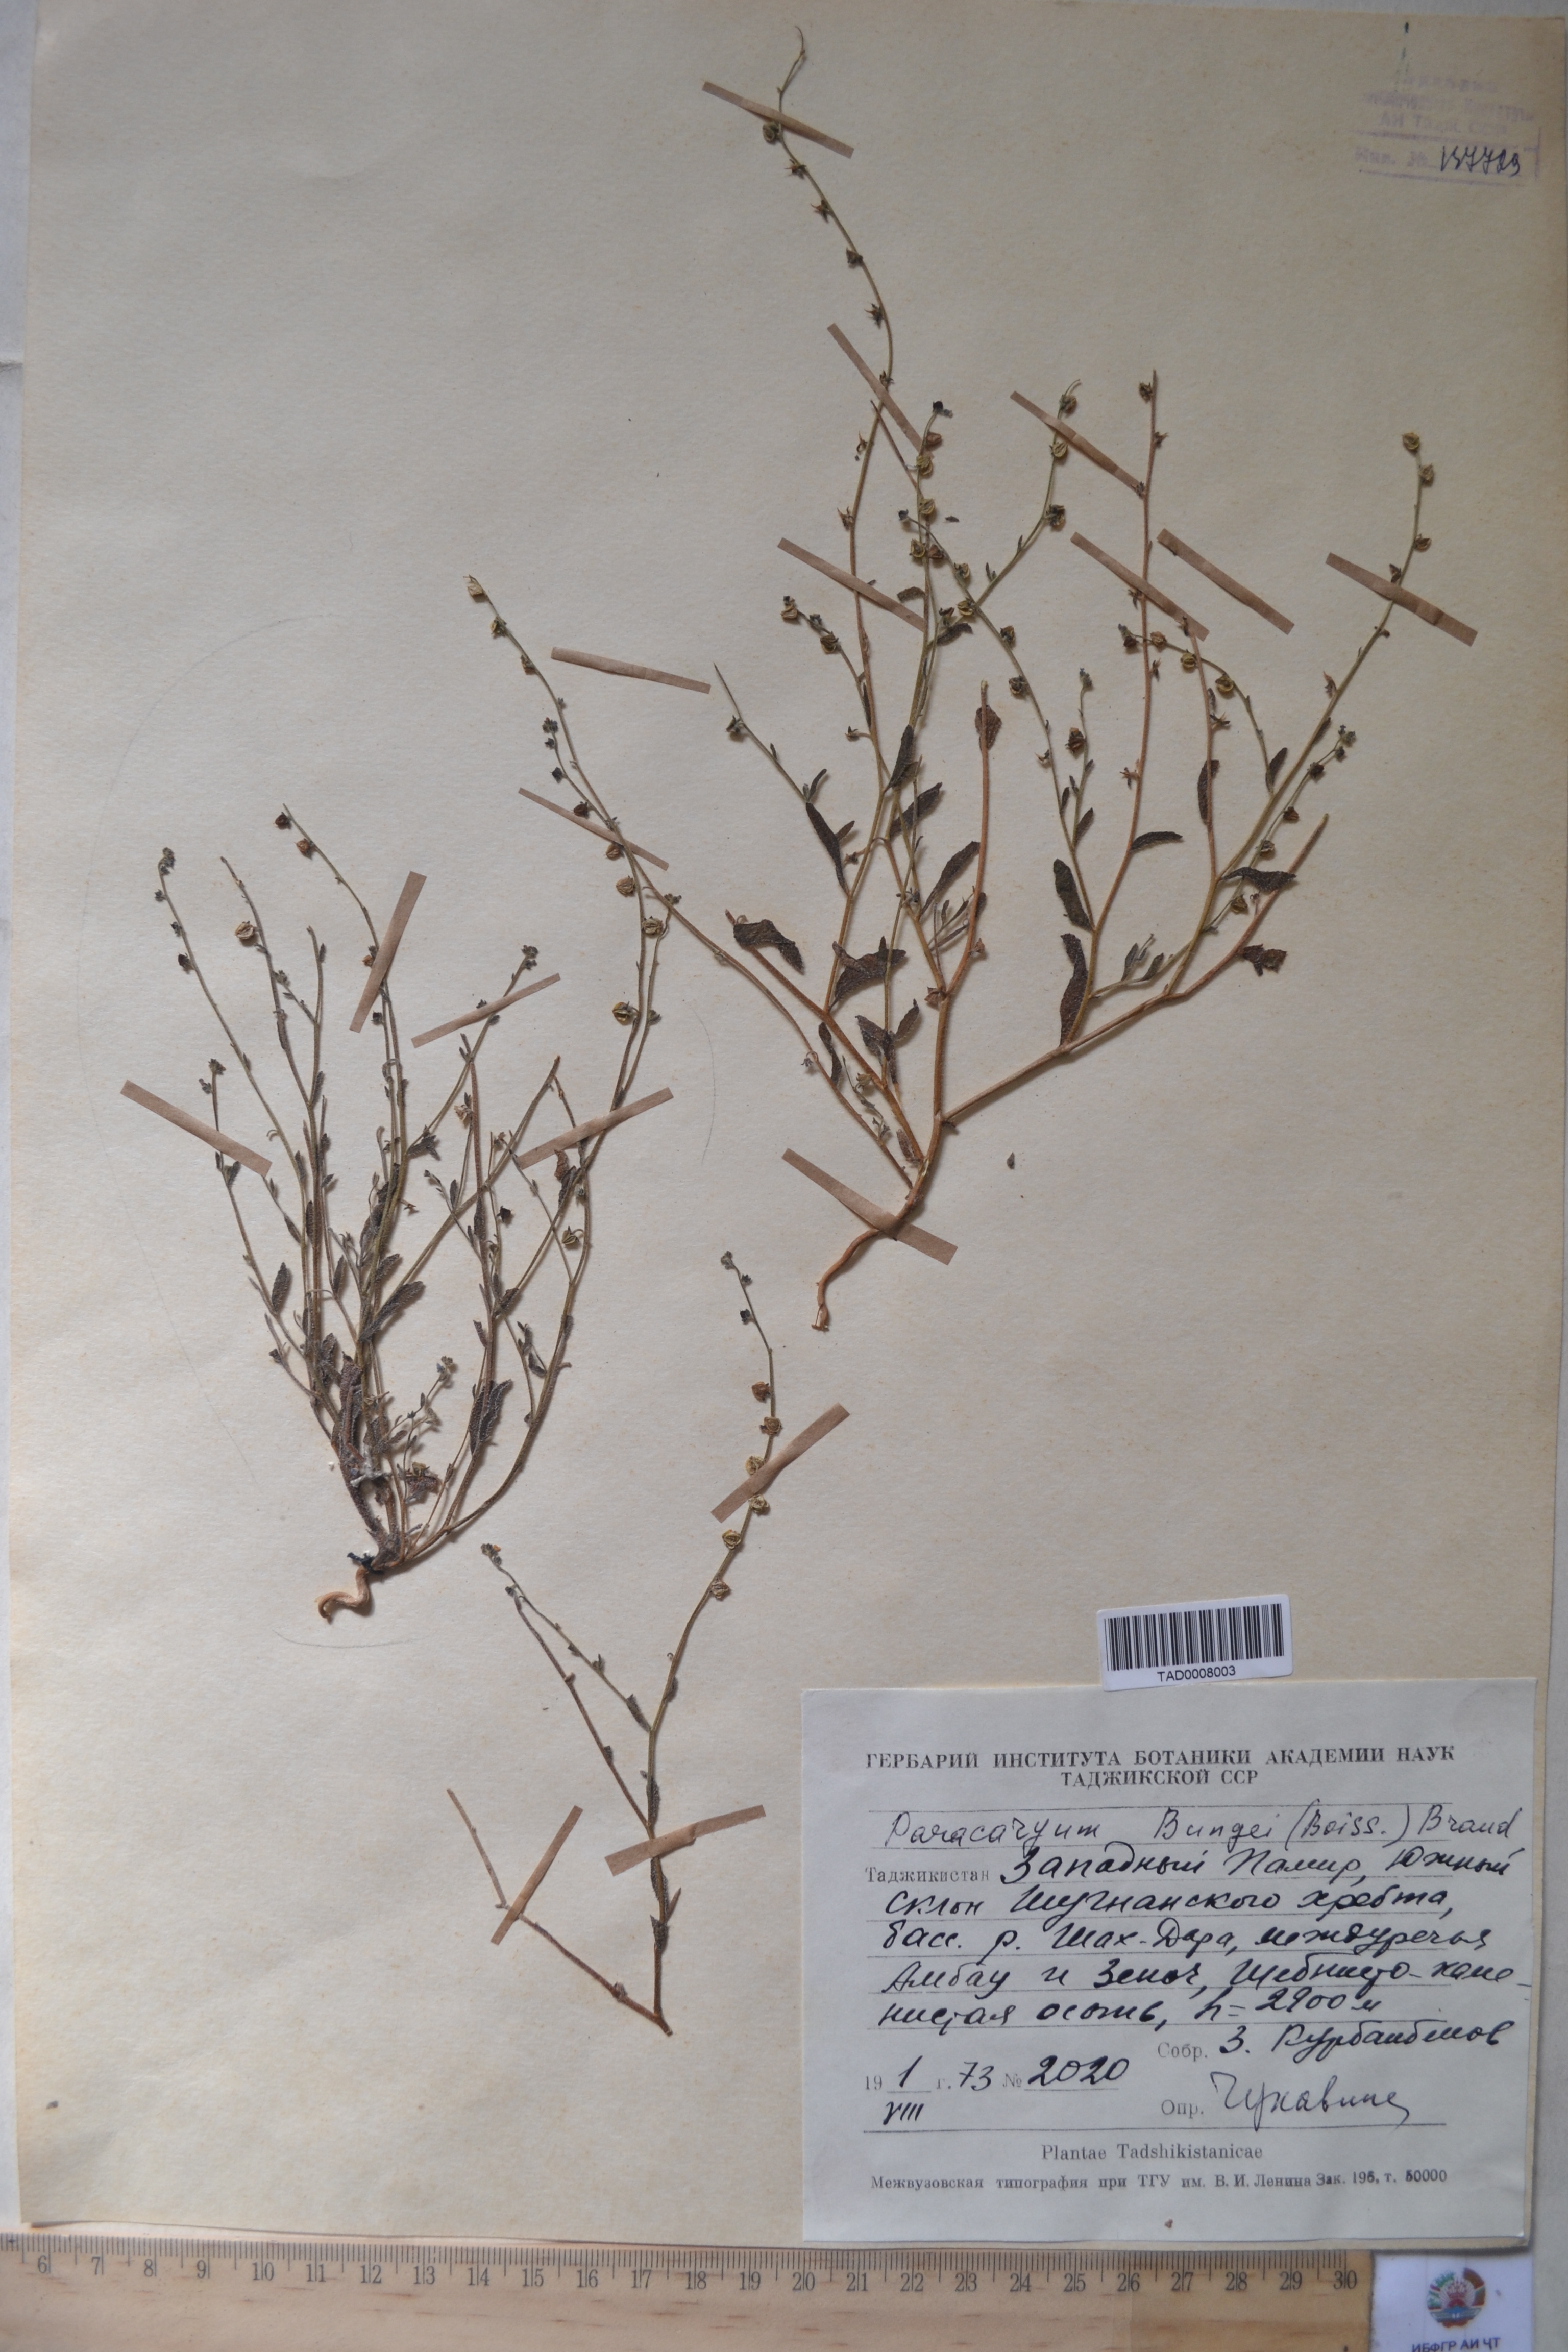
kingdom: Plantae
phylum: Tracheophyta
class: Magnoliopsida
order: Boraginales
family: Boraginaceae
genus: Paracaryum
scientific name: Paracaryum
